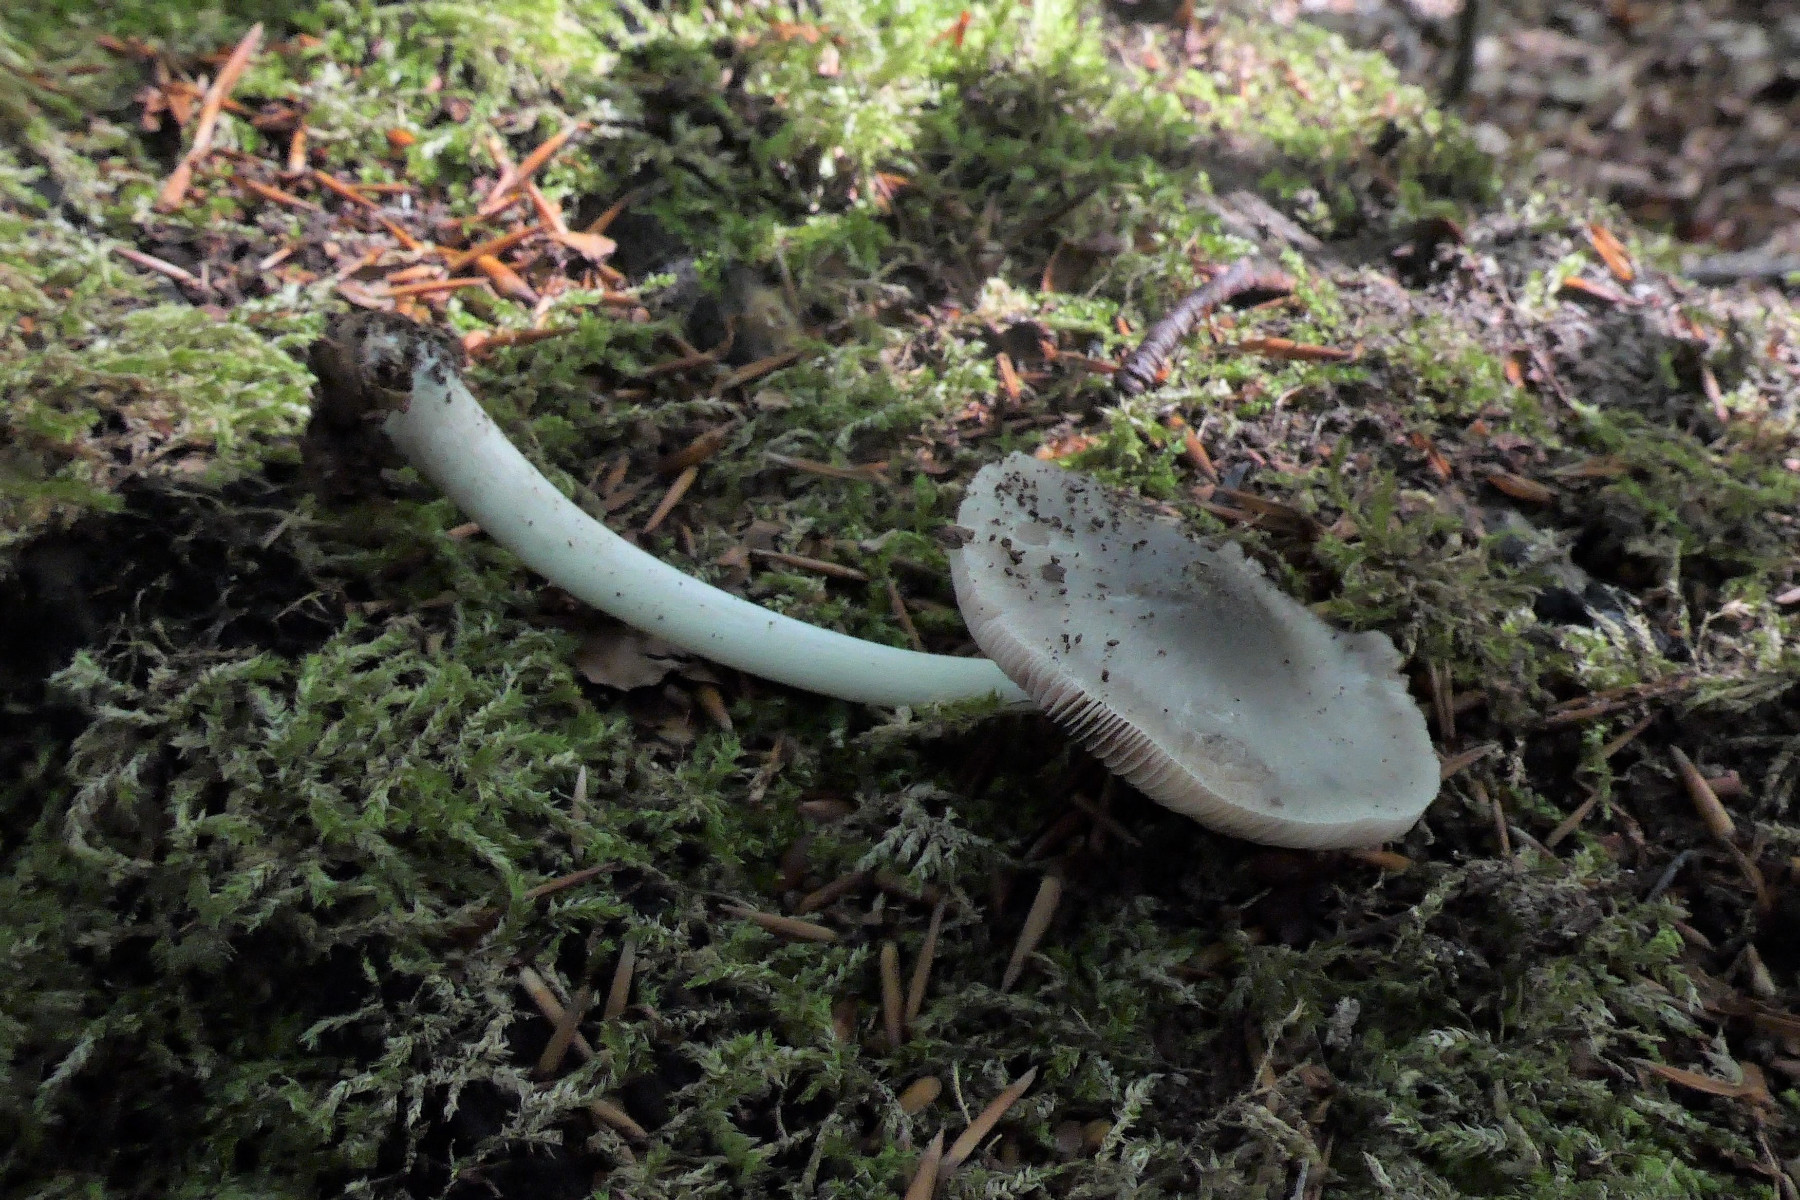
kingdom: Fungi
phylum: Basidiomycota
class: Agaricomycetes
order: Agaricales
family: Pluteaceae
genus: Pluteus
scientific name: Pluteus salicinus
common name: stiv skærmhat
